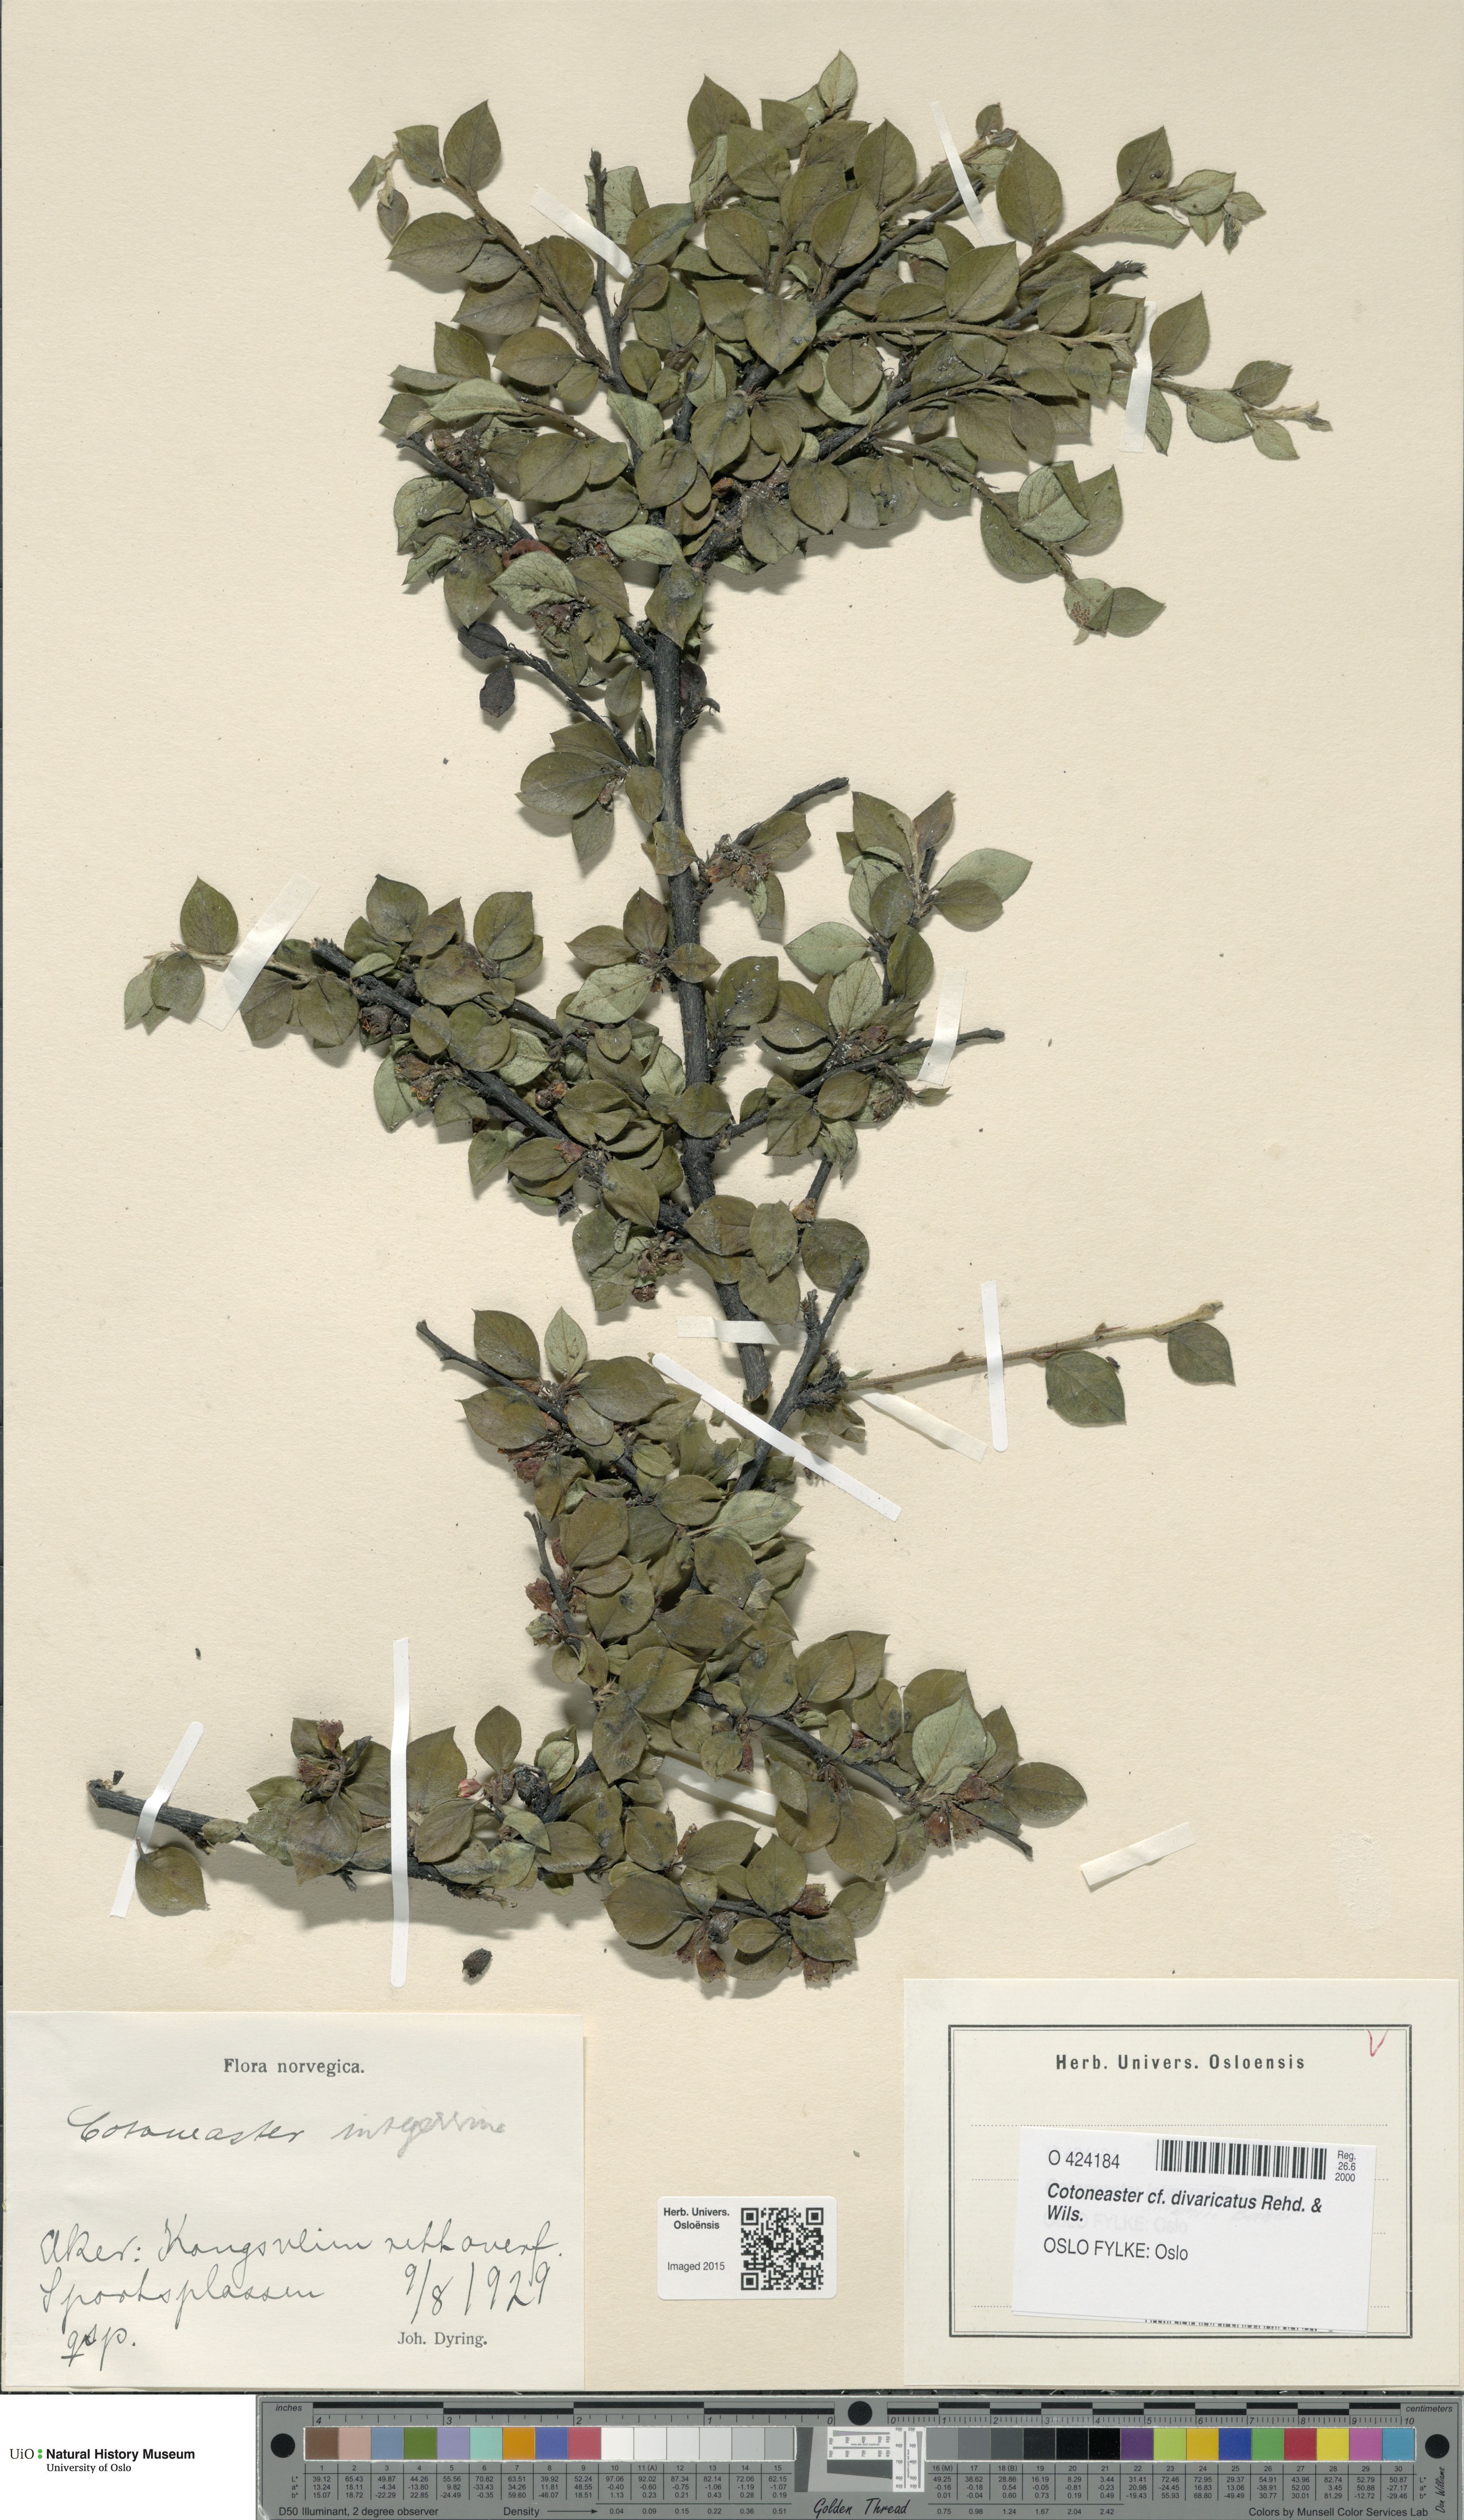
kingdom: Plantae
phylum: Tracheophyta
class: Magnoliopsida
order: Rosales
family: Rosaceae
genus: Cotoneaster
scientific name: Cotoneaster divaricatus
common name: Spreading cotoneaster
